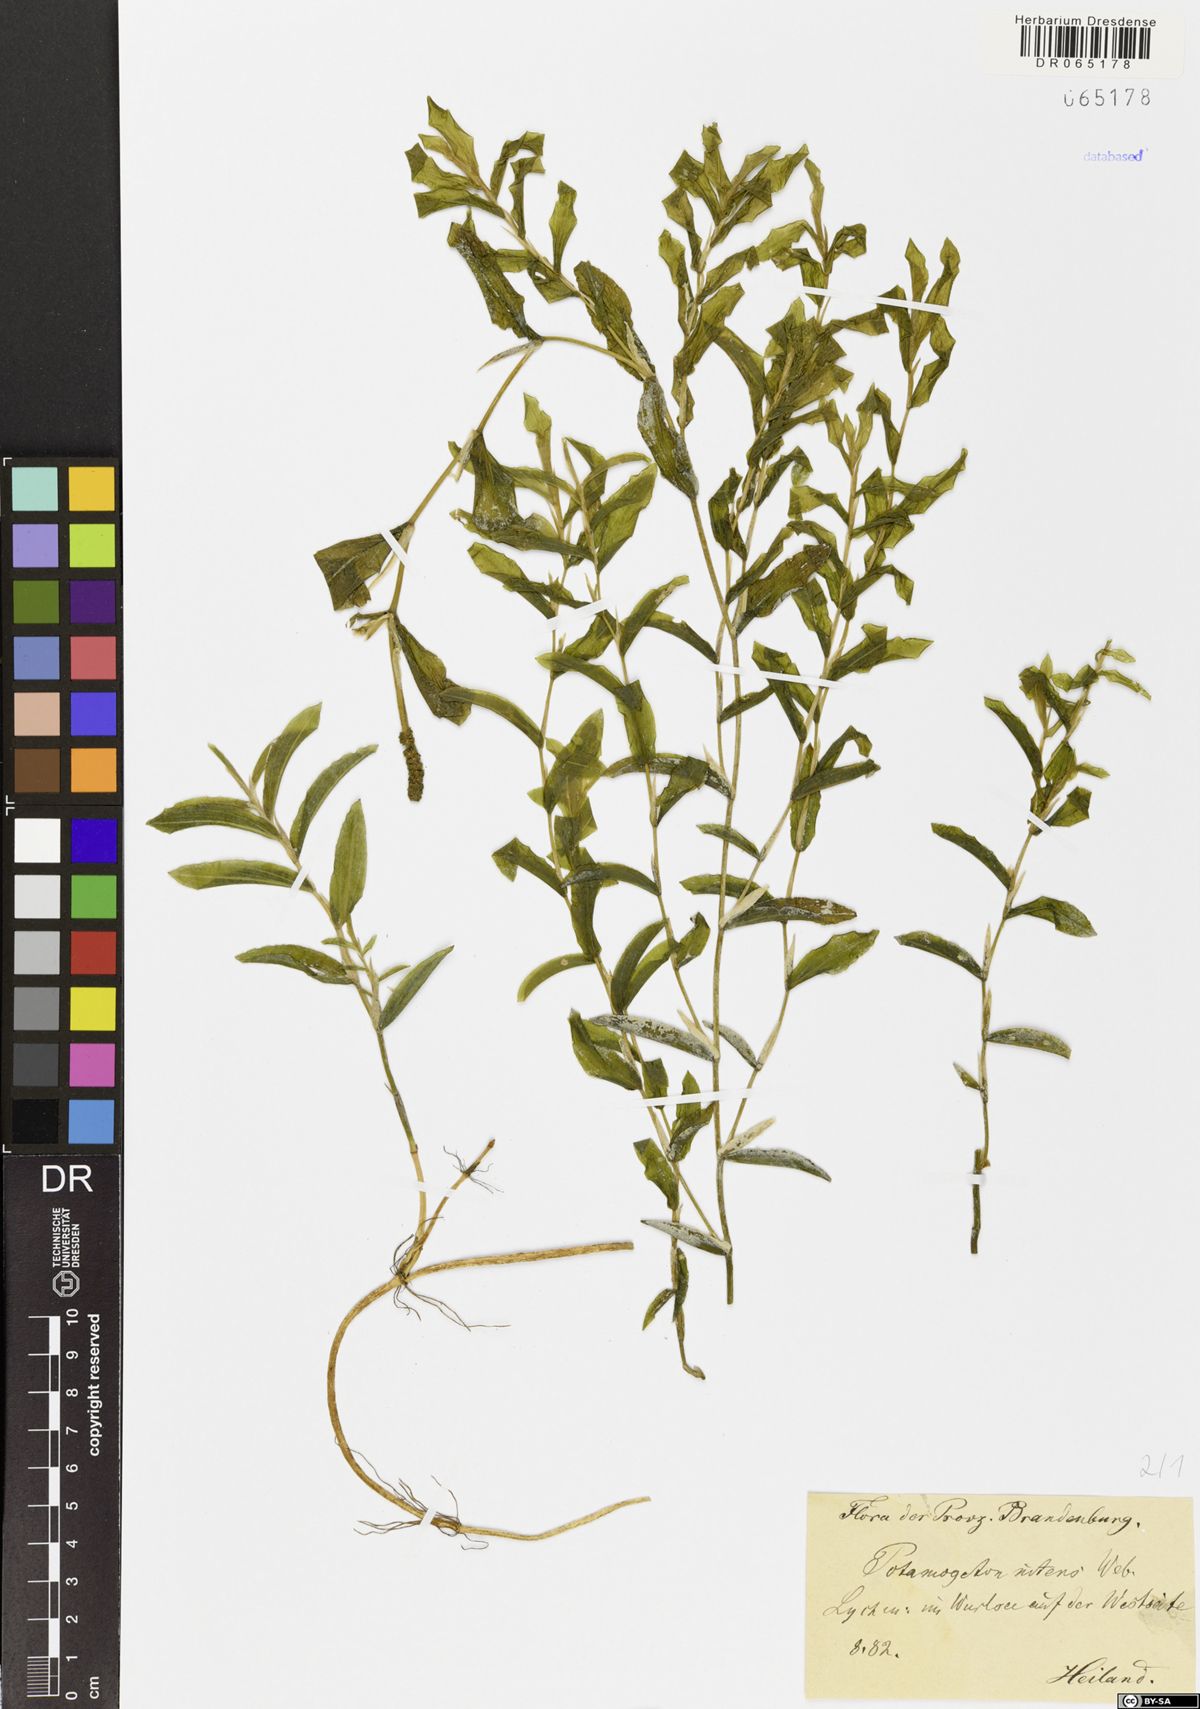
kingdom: Plantae
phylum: Tracheophyta
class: Liliopsida
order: Alismatales
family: Potamogetonaceae
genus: Potamogeton
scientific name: Potamogeton nitens
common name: Pondweed
